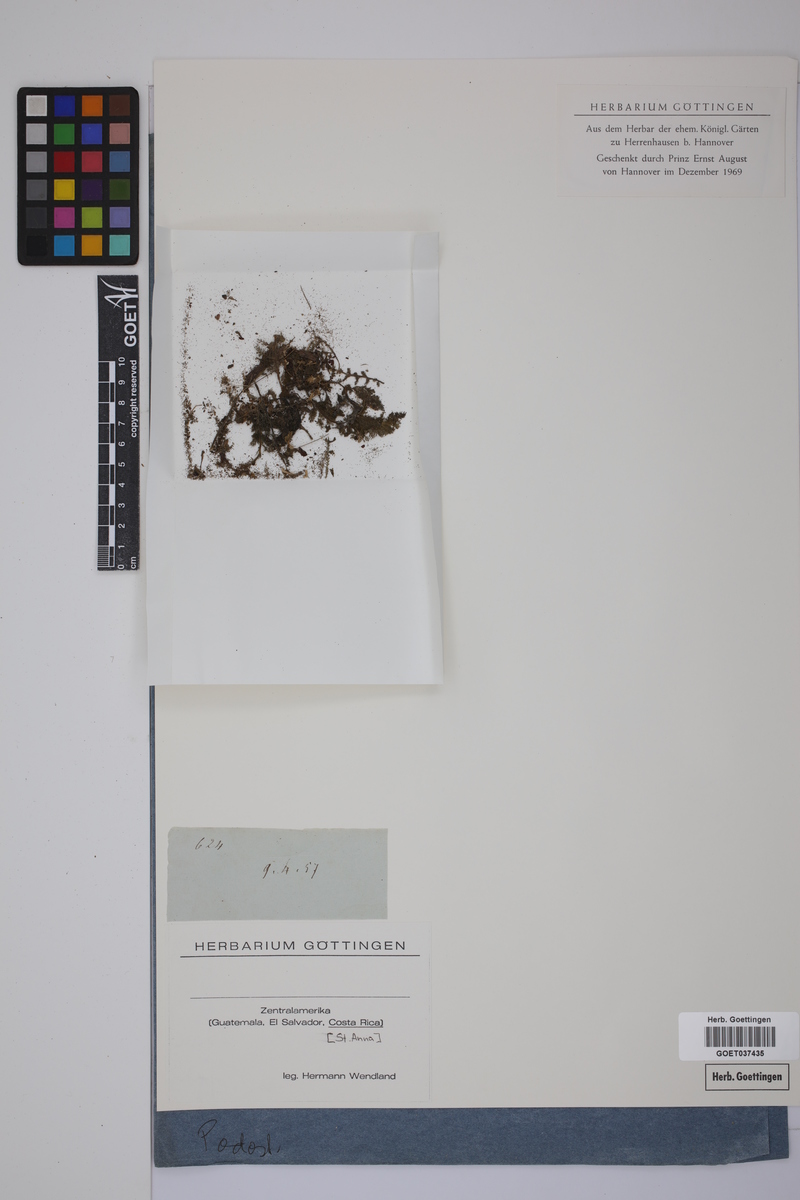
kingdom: Plantae
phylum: Tracheophyta
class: Magnoliopsida
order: Malpighiales
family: Podostemaceae
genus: Tristicha
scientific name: Tristicha trifaria
